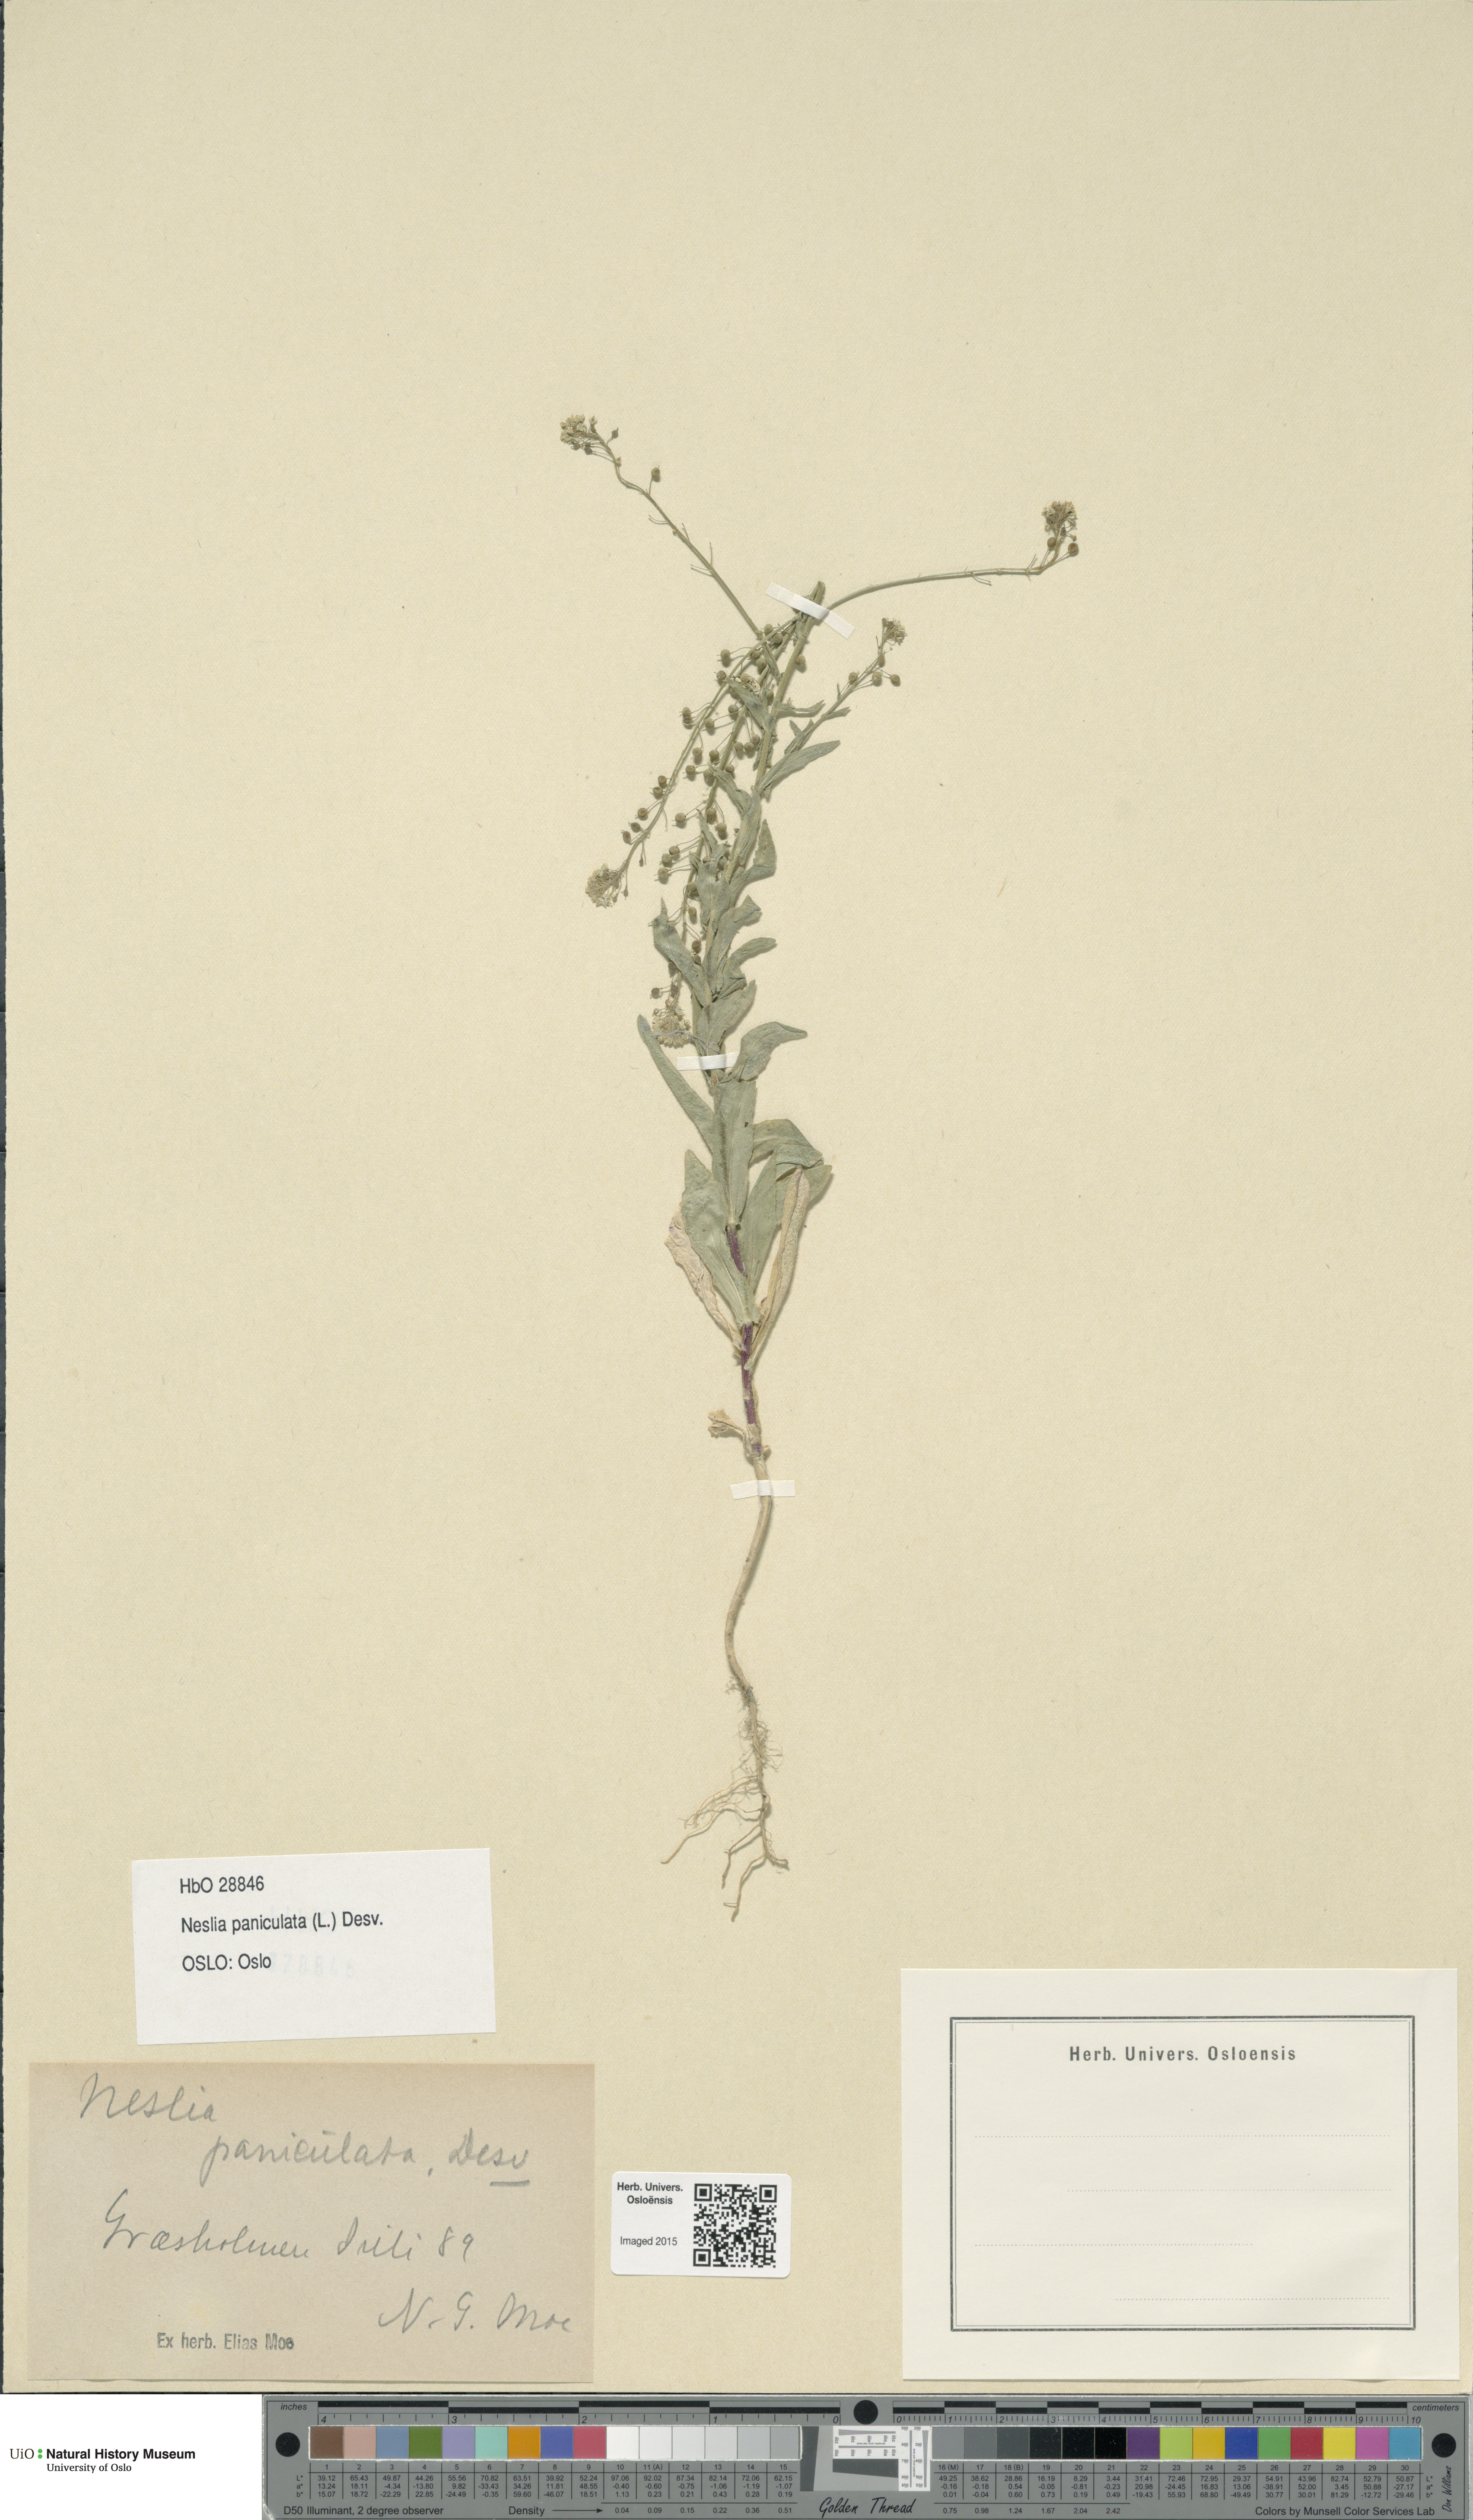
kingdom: Plantae
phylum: Tracheophyta
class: Magnoliopsida
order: Brassicales
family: Brassicaceae
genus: Neslia
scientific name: Neslia paniculata
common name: Ball mustard
